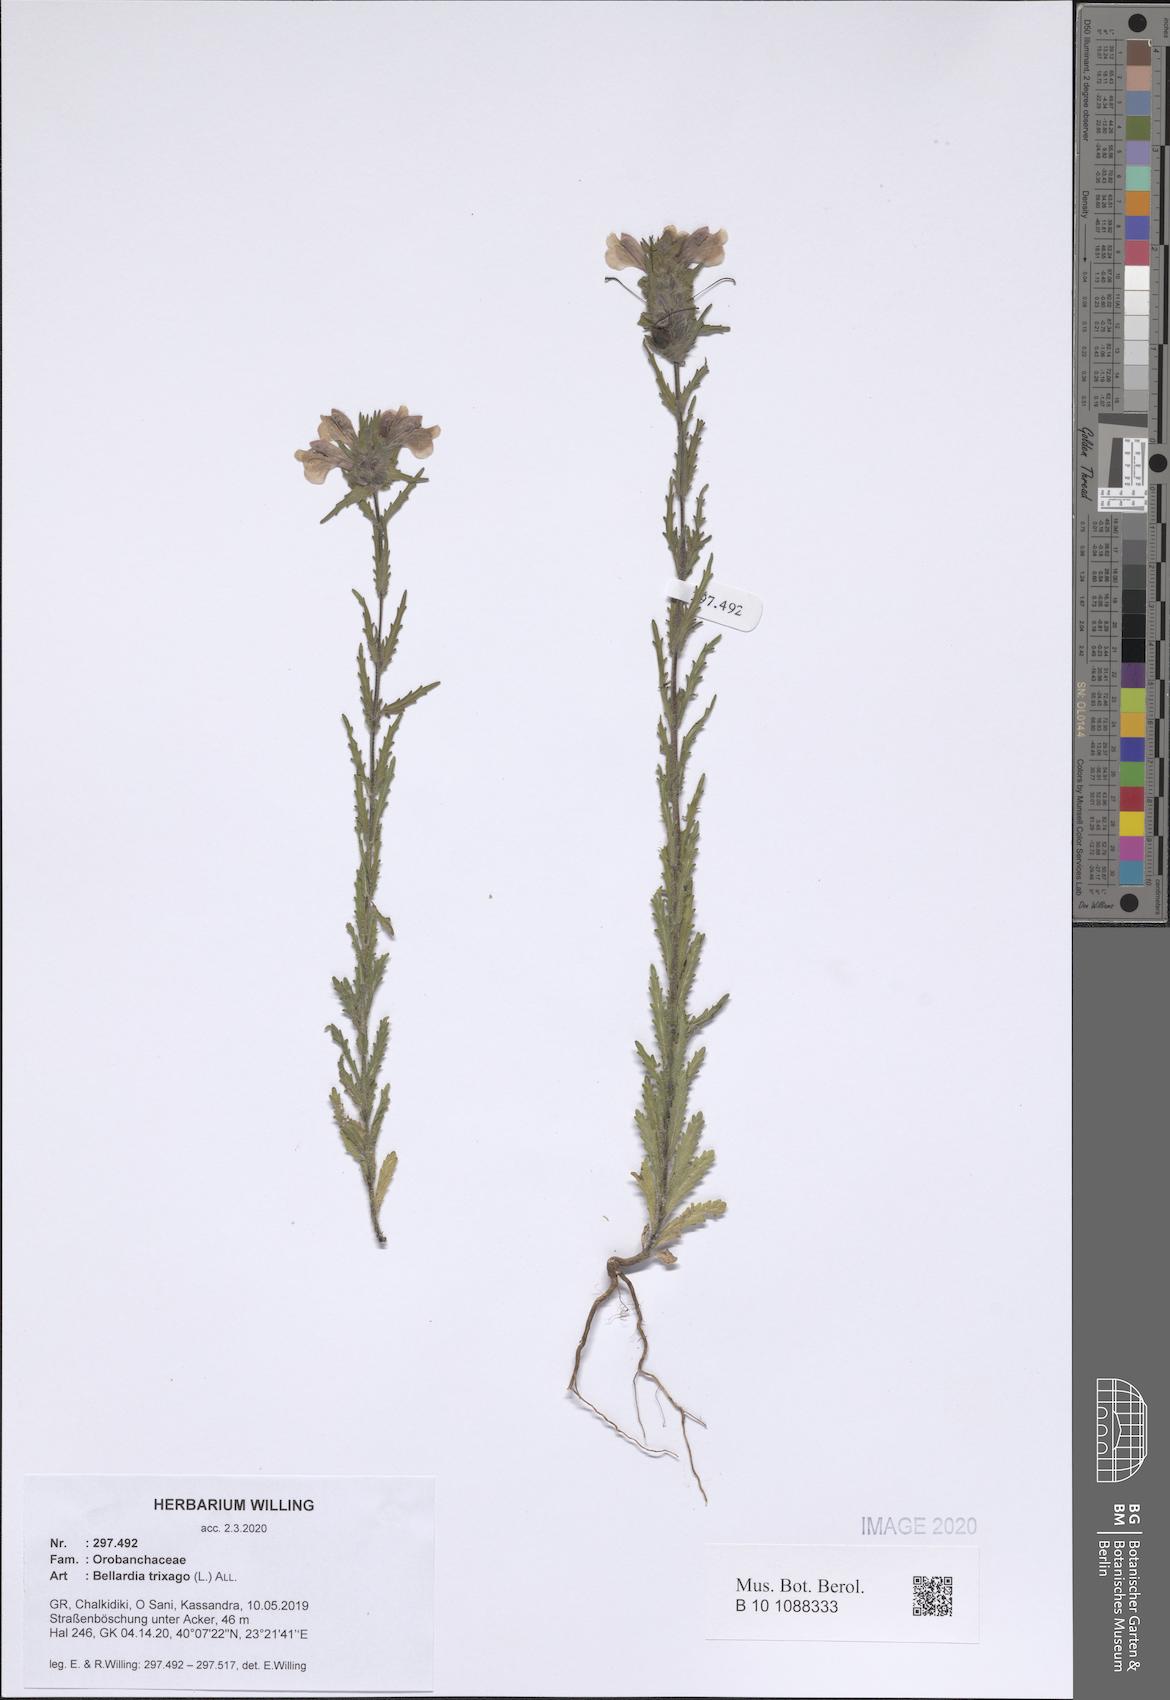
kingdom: Plantae
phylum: Tracheophyta
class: Magnoliopsida
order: Lamiales
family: Orobanchaceae
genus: Bellardia
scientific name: Bellardia trixago
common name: Mediterranean lineseed
